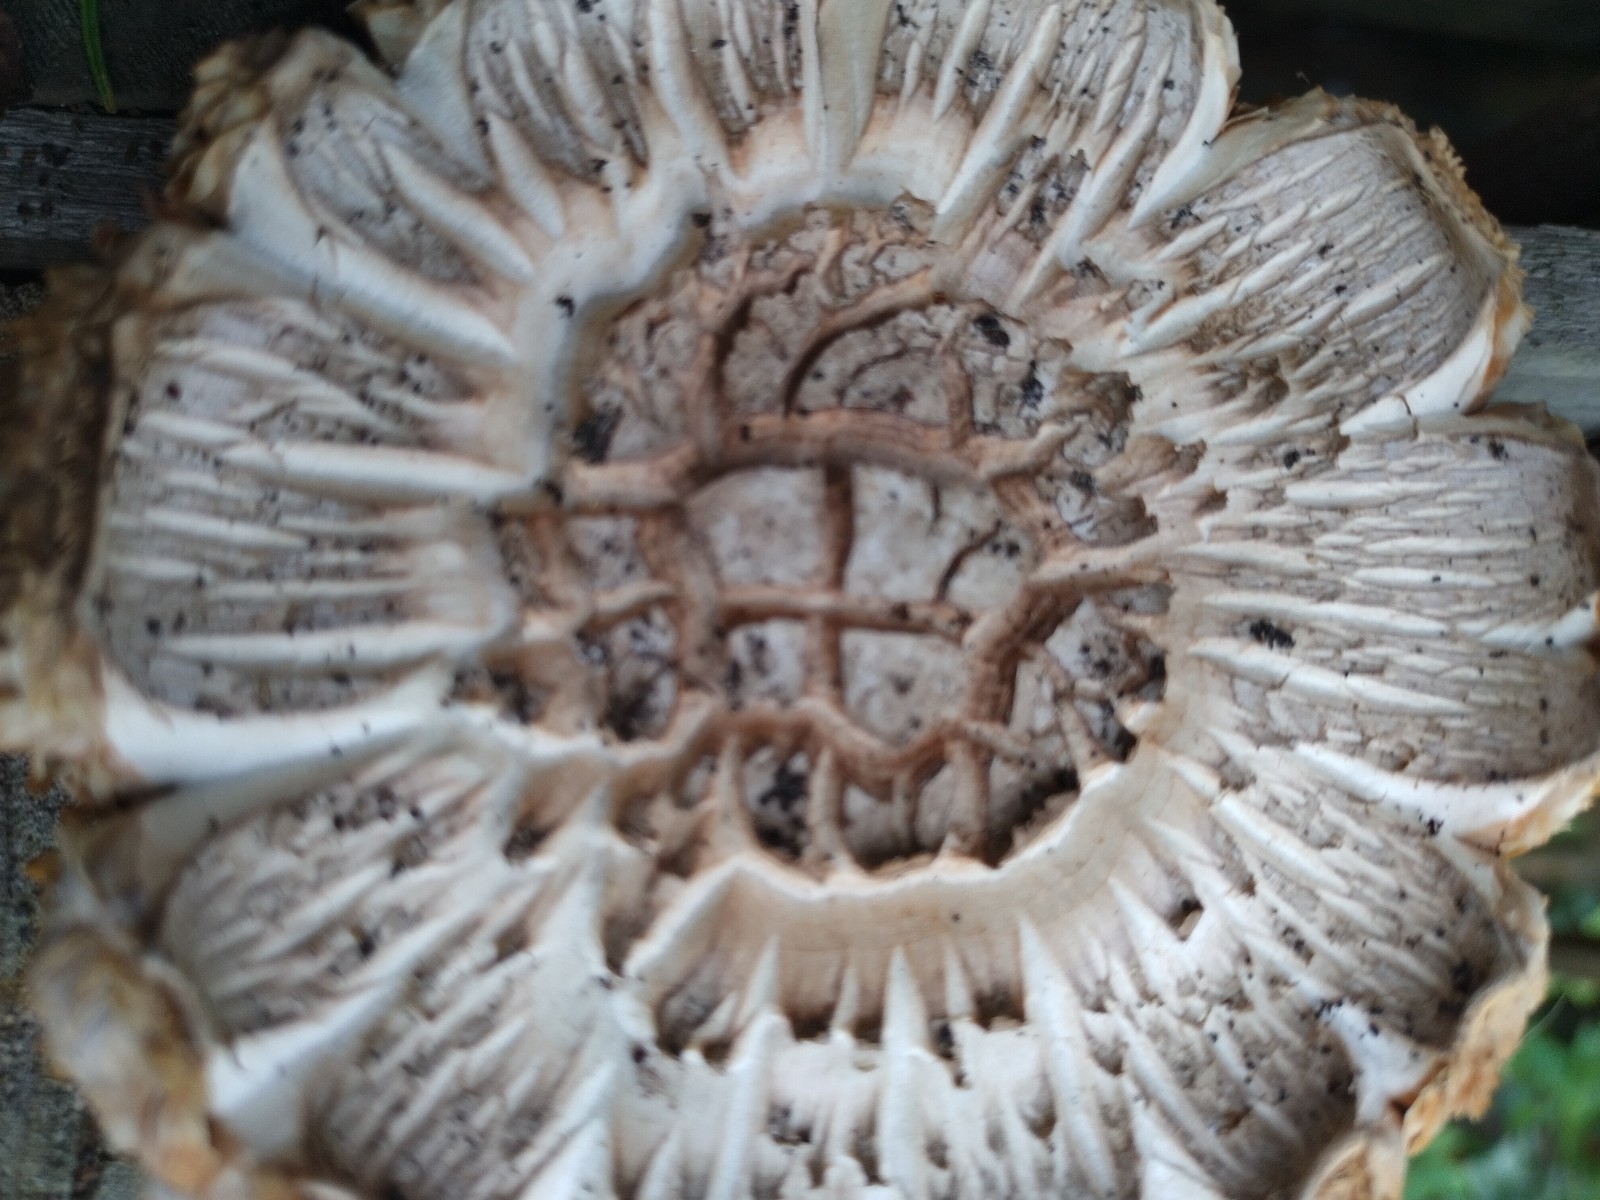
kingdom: Fungi
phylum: Basidiomycota
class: Agaricomycetes
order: Agaricales
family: Agaricaceae
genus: Agaricus
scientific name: Agaricus xanthodermus
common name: karbol-champignon
